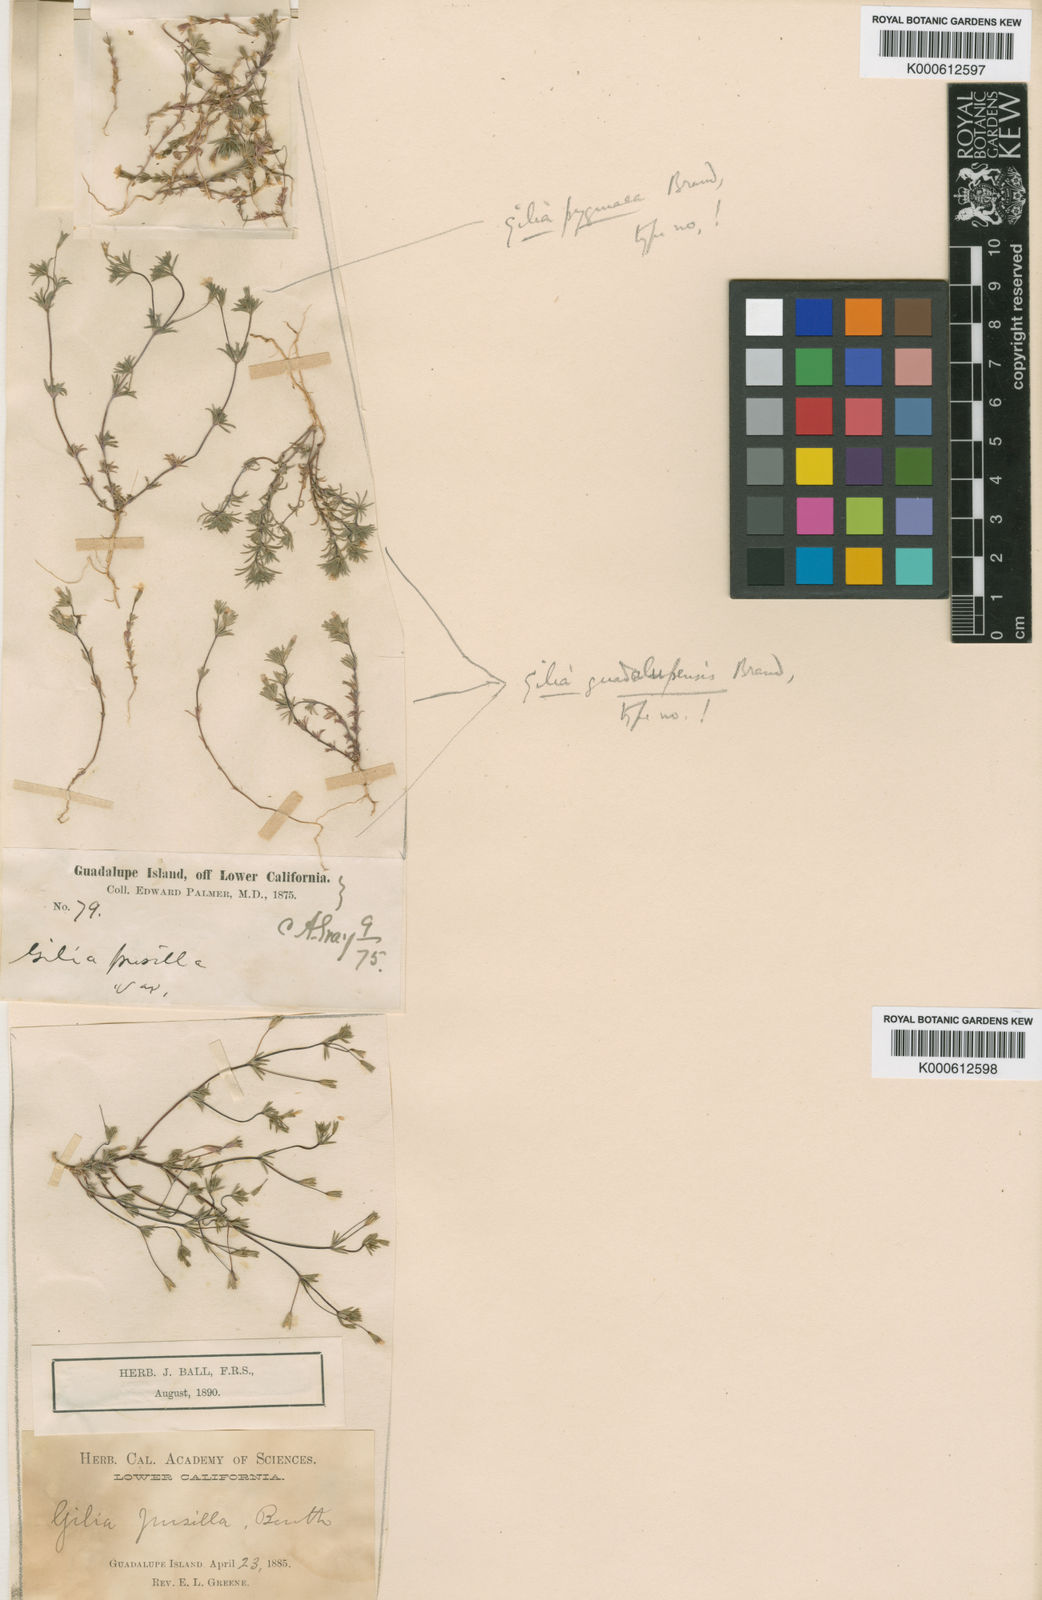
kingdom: Plantae
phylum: Tracheophyta
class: Magnoliopsida
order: Ericales
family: Polemoniaceae
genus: Leptosiphon
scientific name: Leptosiphon pygmaeus
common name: Pygmy linanthus
